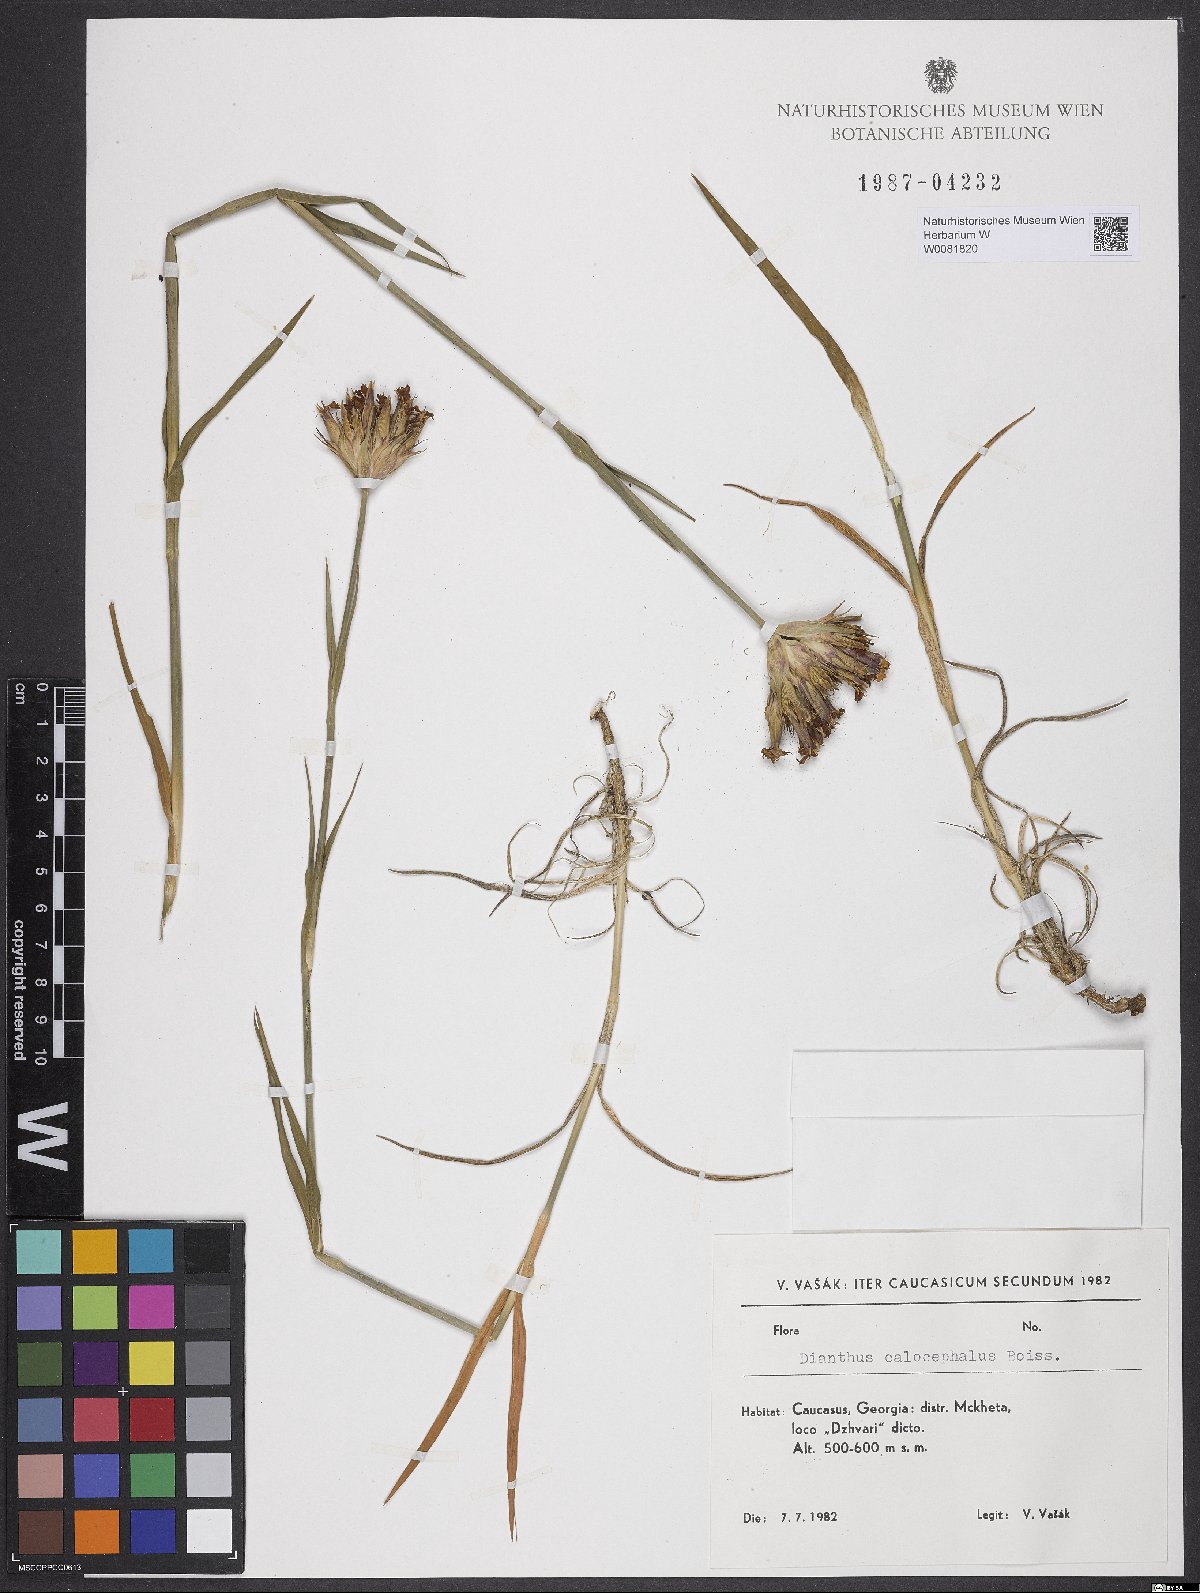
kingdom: Plantae
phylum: Tracheophyta
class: Magnoliopsida
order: Caryophyllales
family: Caryophyllaceae
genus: Dianthus
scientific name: Dianthus cruentus
